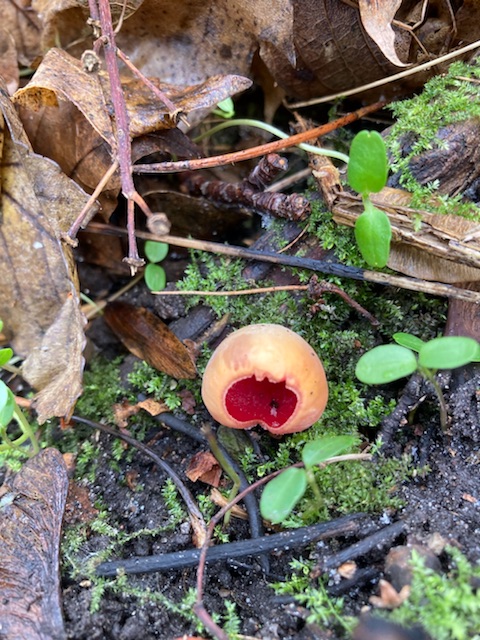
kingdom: Fungi
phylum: Ascomycota
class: Pezizomycetes
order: Pezizales
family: Sarcoscyphaceae
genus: Sarcoscypha
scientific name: Sarcoscypha austriaca
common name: krølhåret pragtbæger
